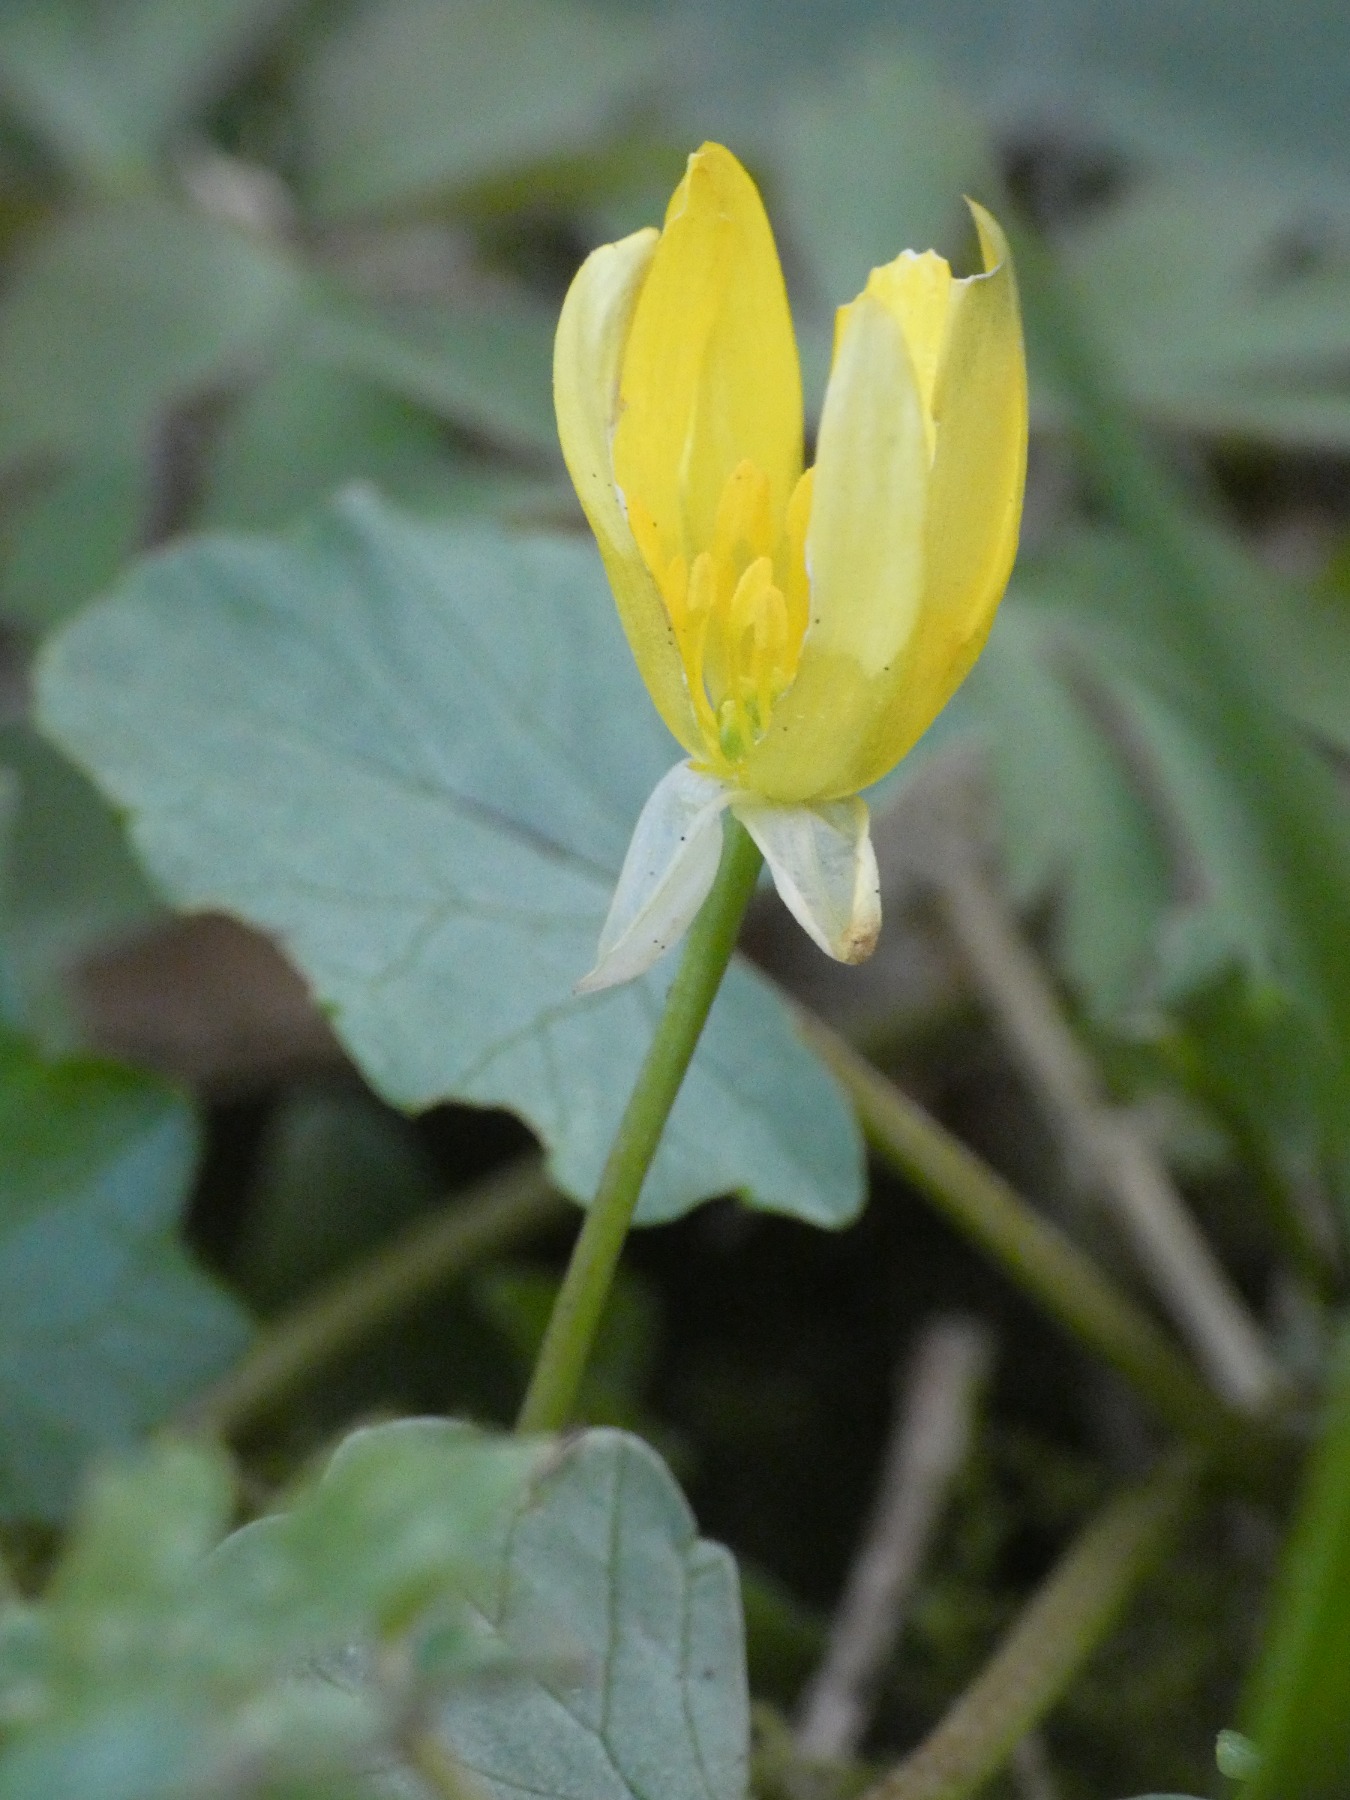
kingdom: Plantae
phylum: Tracheophyta
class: Magnoliopsida
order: Ranunculales
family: Ranunculaceae
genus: Ficaria
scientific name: Ficaria verna
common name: Vorterod
